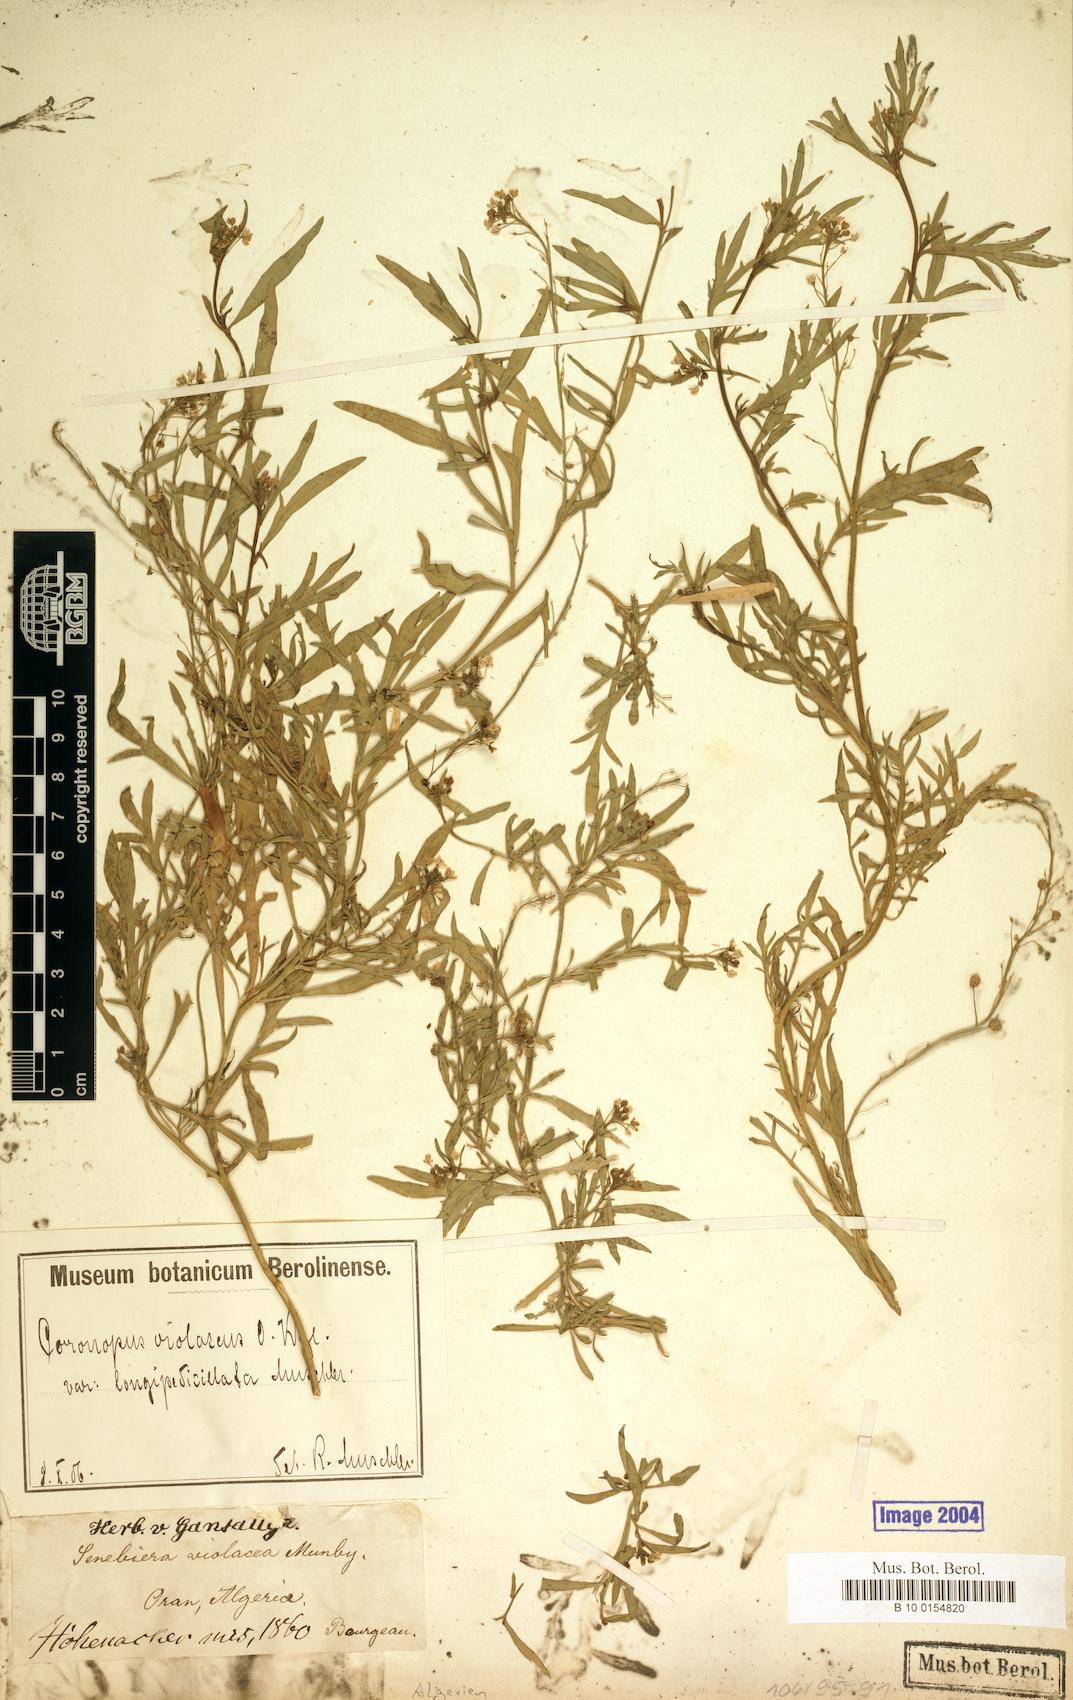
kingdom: Plantae
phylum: Tracheophyta
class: Magnoliopsida
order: Brassicales
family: Brassicaceae
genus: Lepidium
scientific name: Lepidium violaceum
